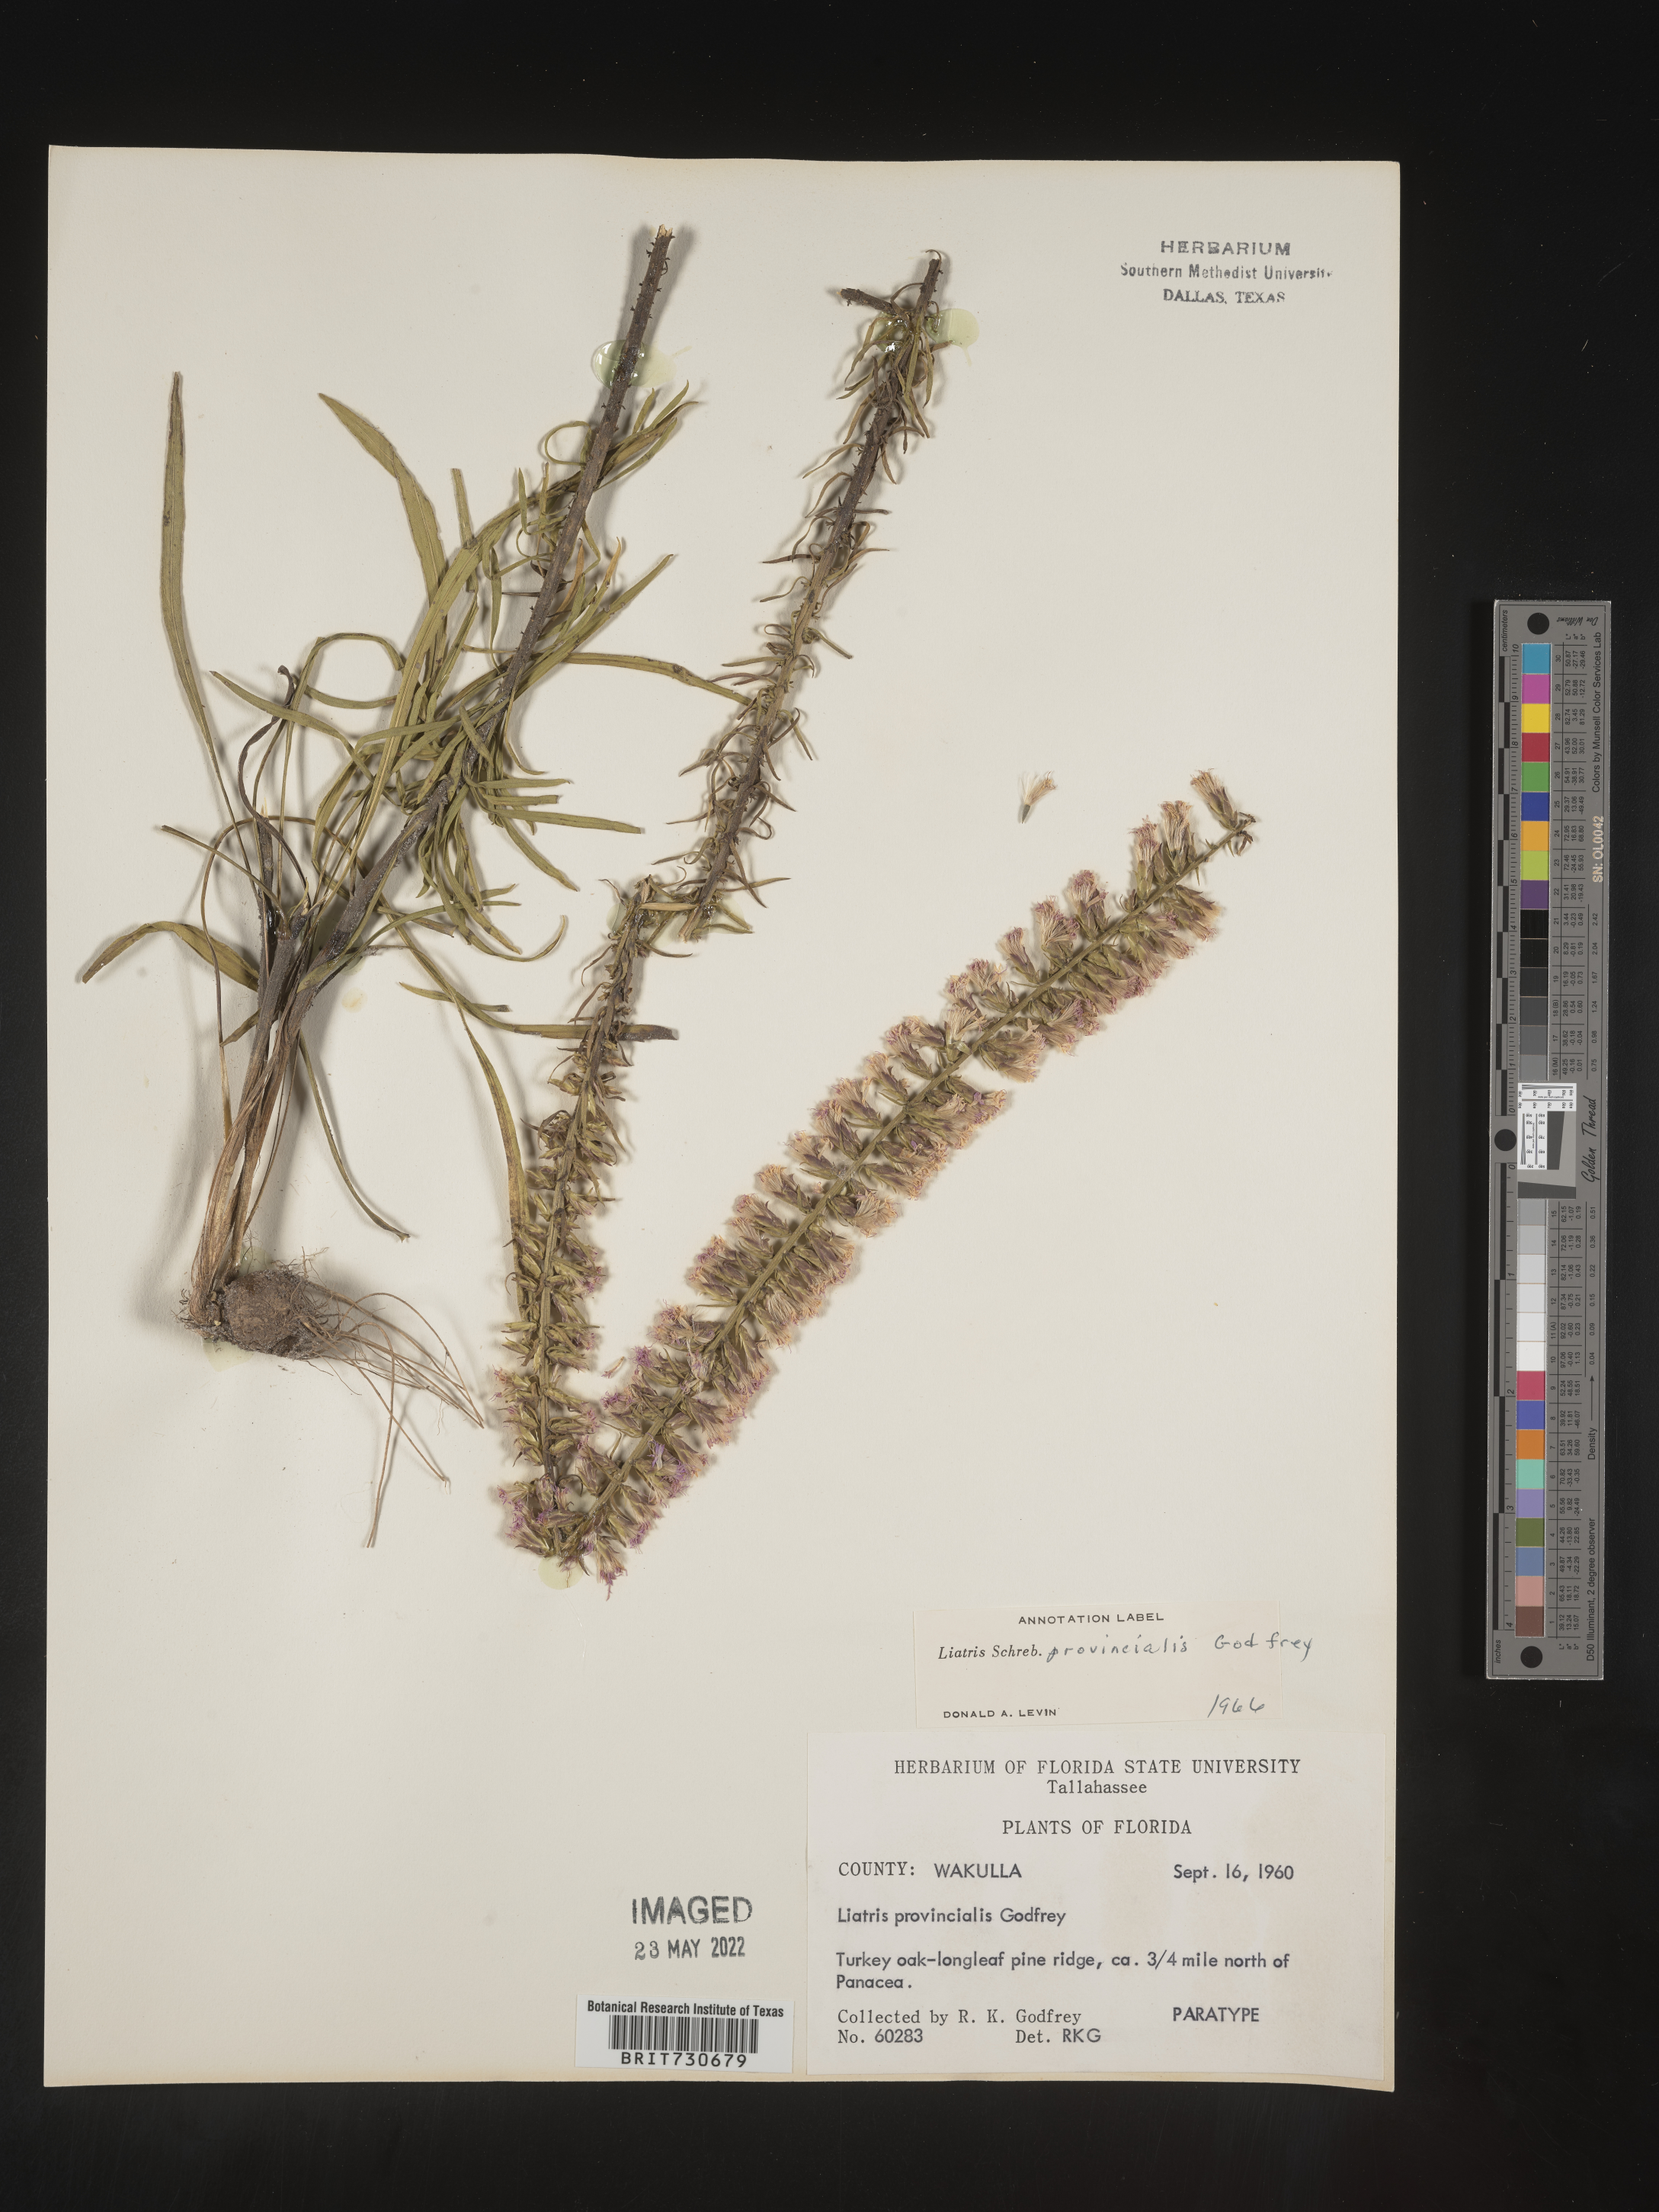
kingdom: Plantae
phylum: Tracheophyta
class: Magnoliopsida
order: Asterales
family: Asteraceae
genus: Liatris
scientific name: Liatris provincialis
